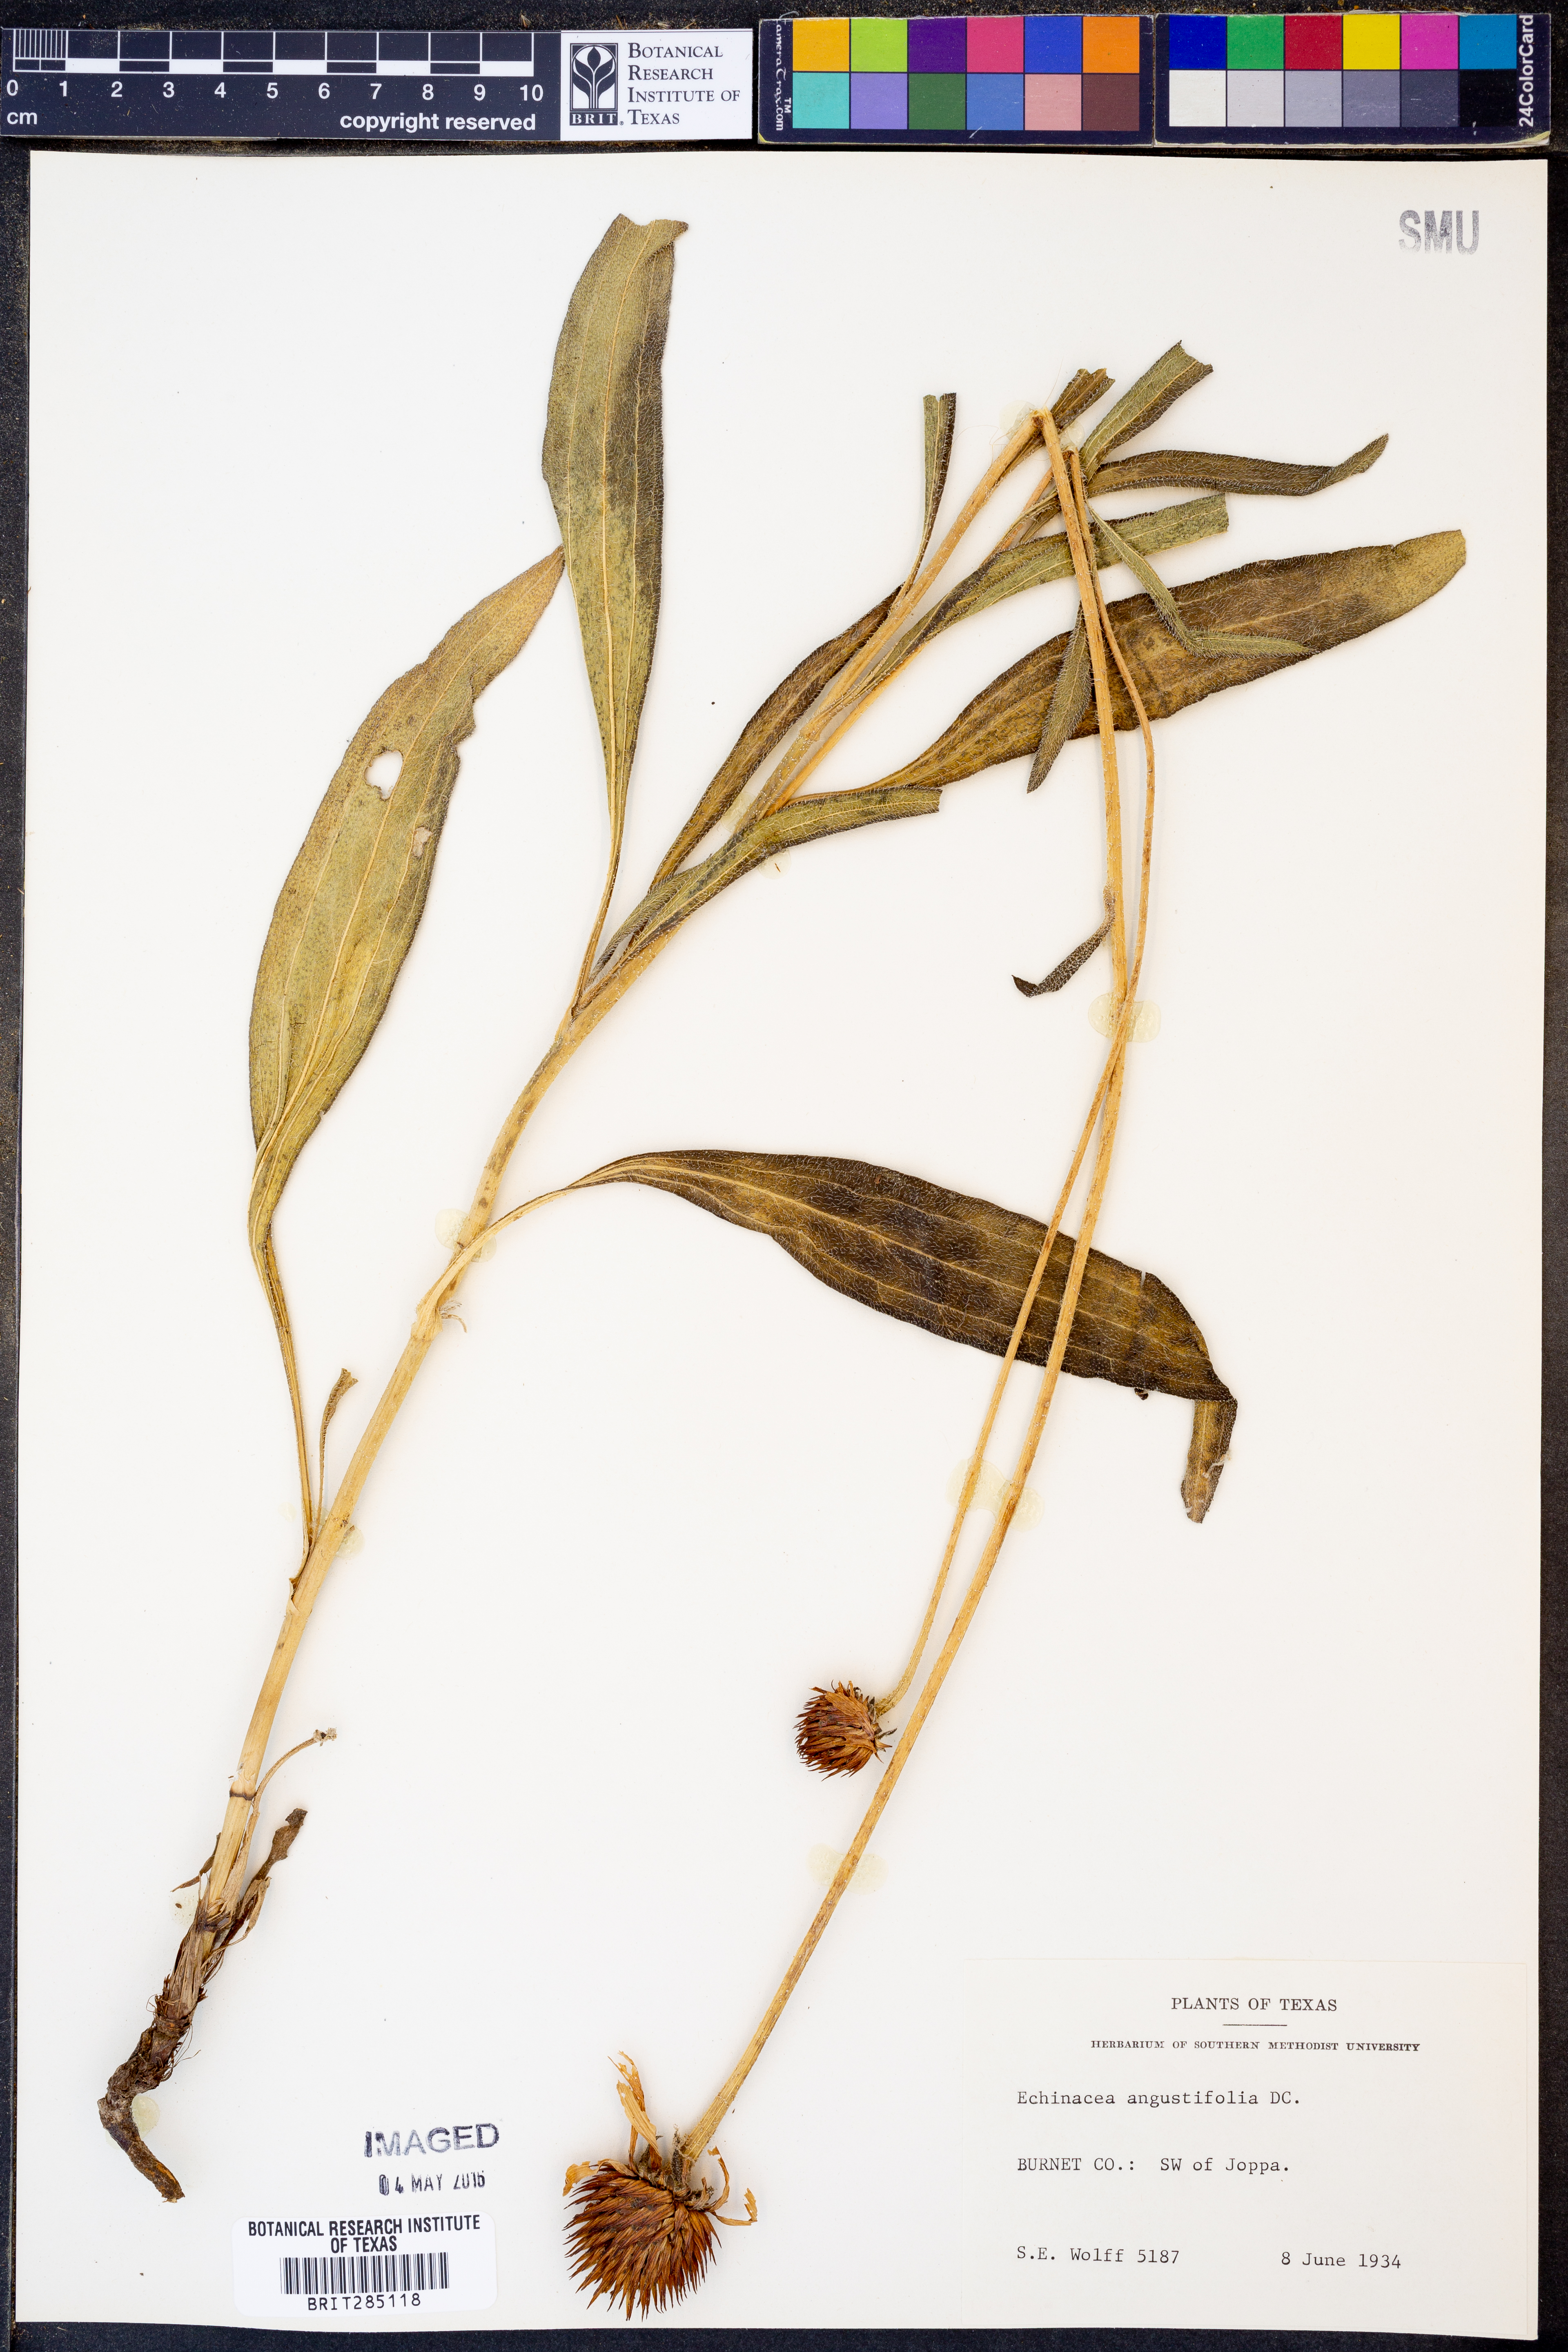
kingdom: Plantae
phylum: Tracheophyta
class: Magnoliopsida
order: Asterales
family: Asteraceae
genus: Echinacea
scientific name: Echinacea angustifolia
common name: Black-sampson echinacea
